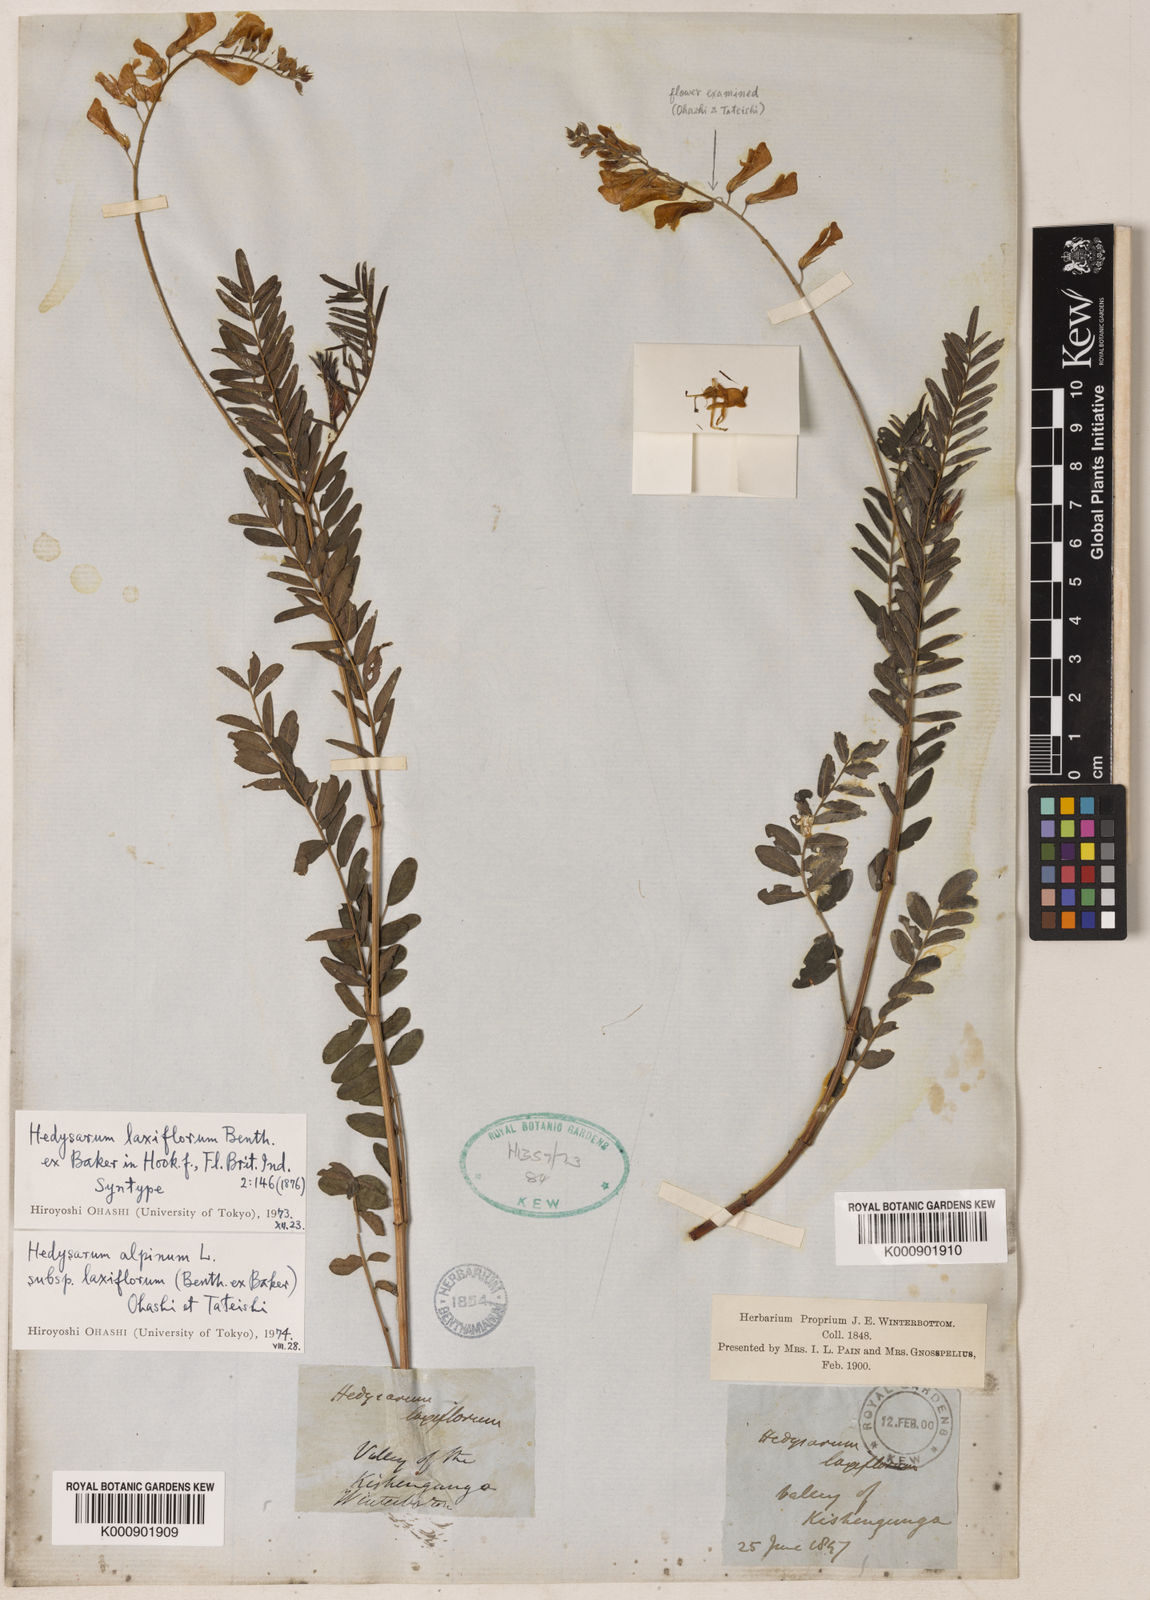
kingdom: Plantae
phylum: Tracheophyta
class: Magnoliopsida
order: Fabales
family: Fabaceae
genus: Hedysarum
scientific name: Hedysarum alpinum
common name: Alpine sweet-vetch
